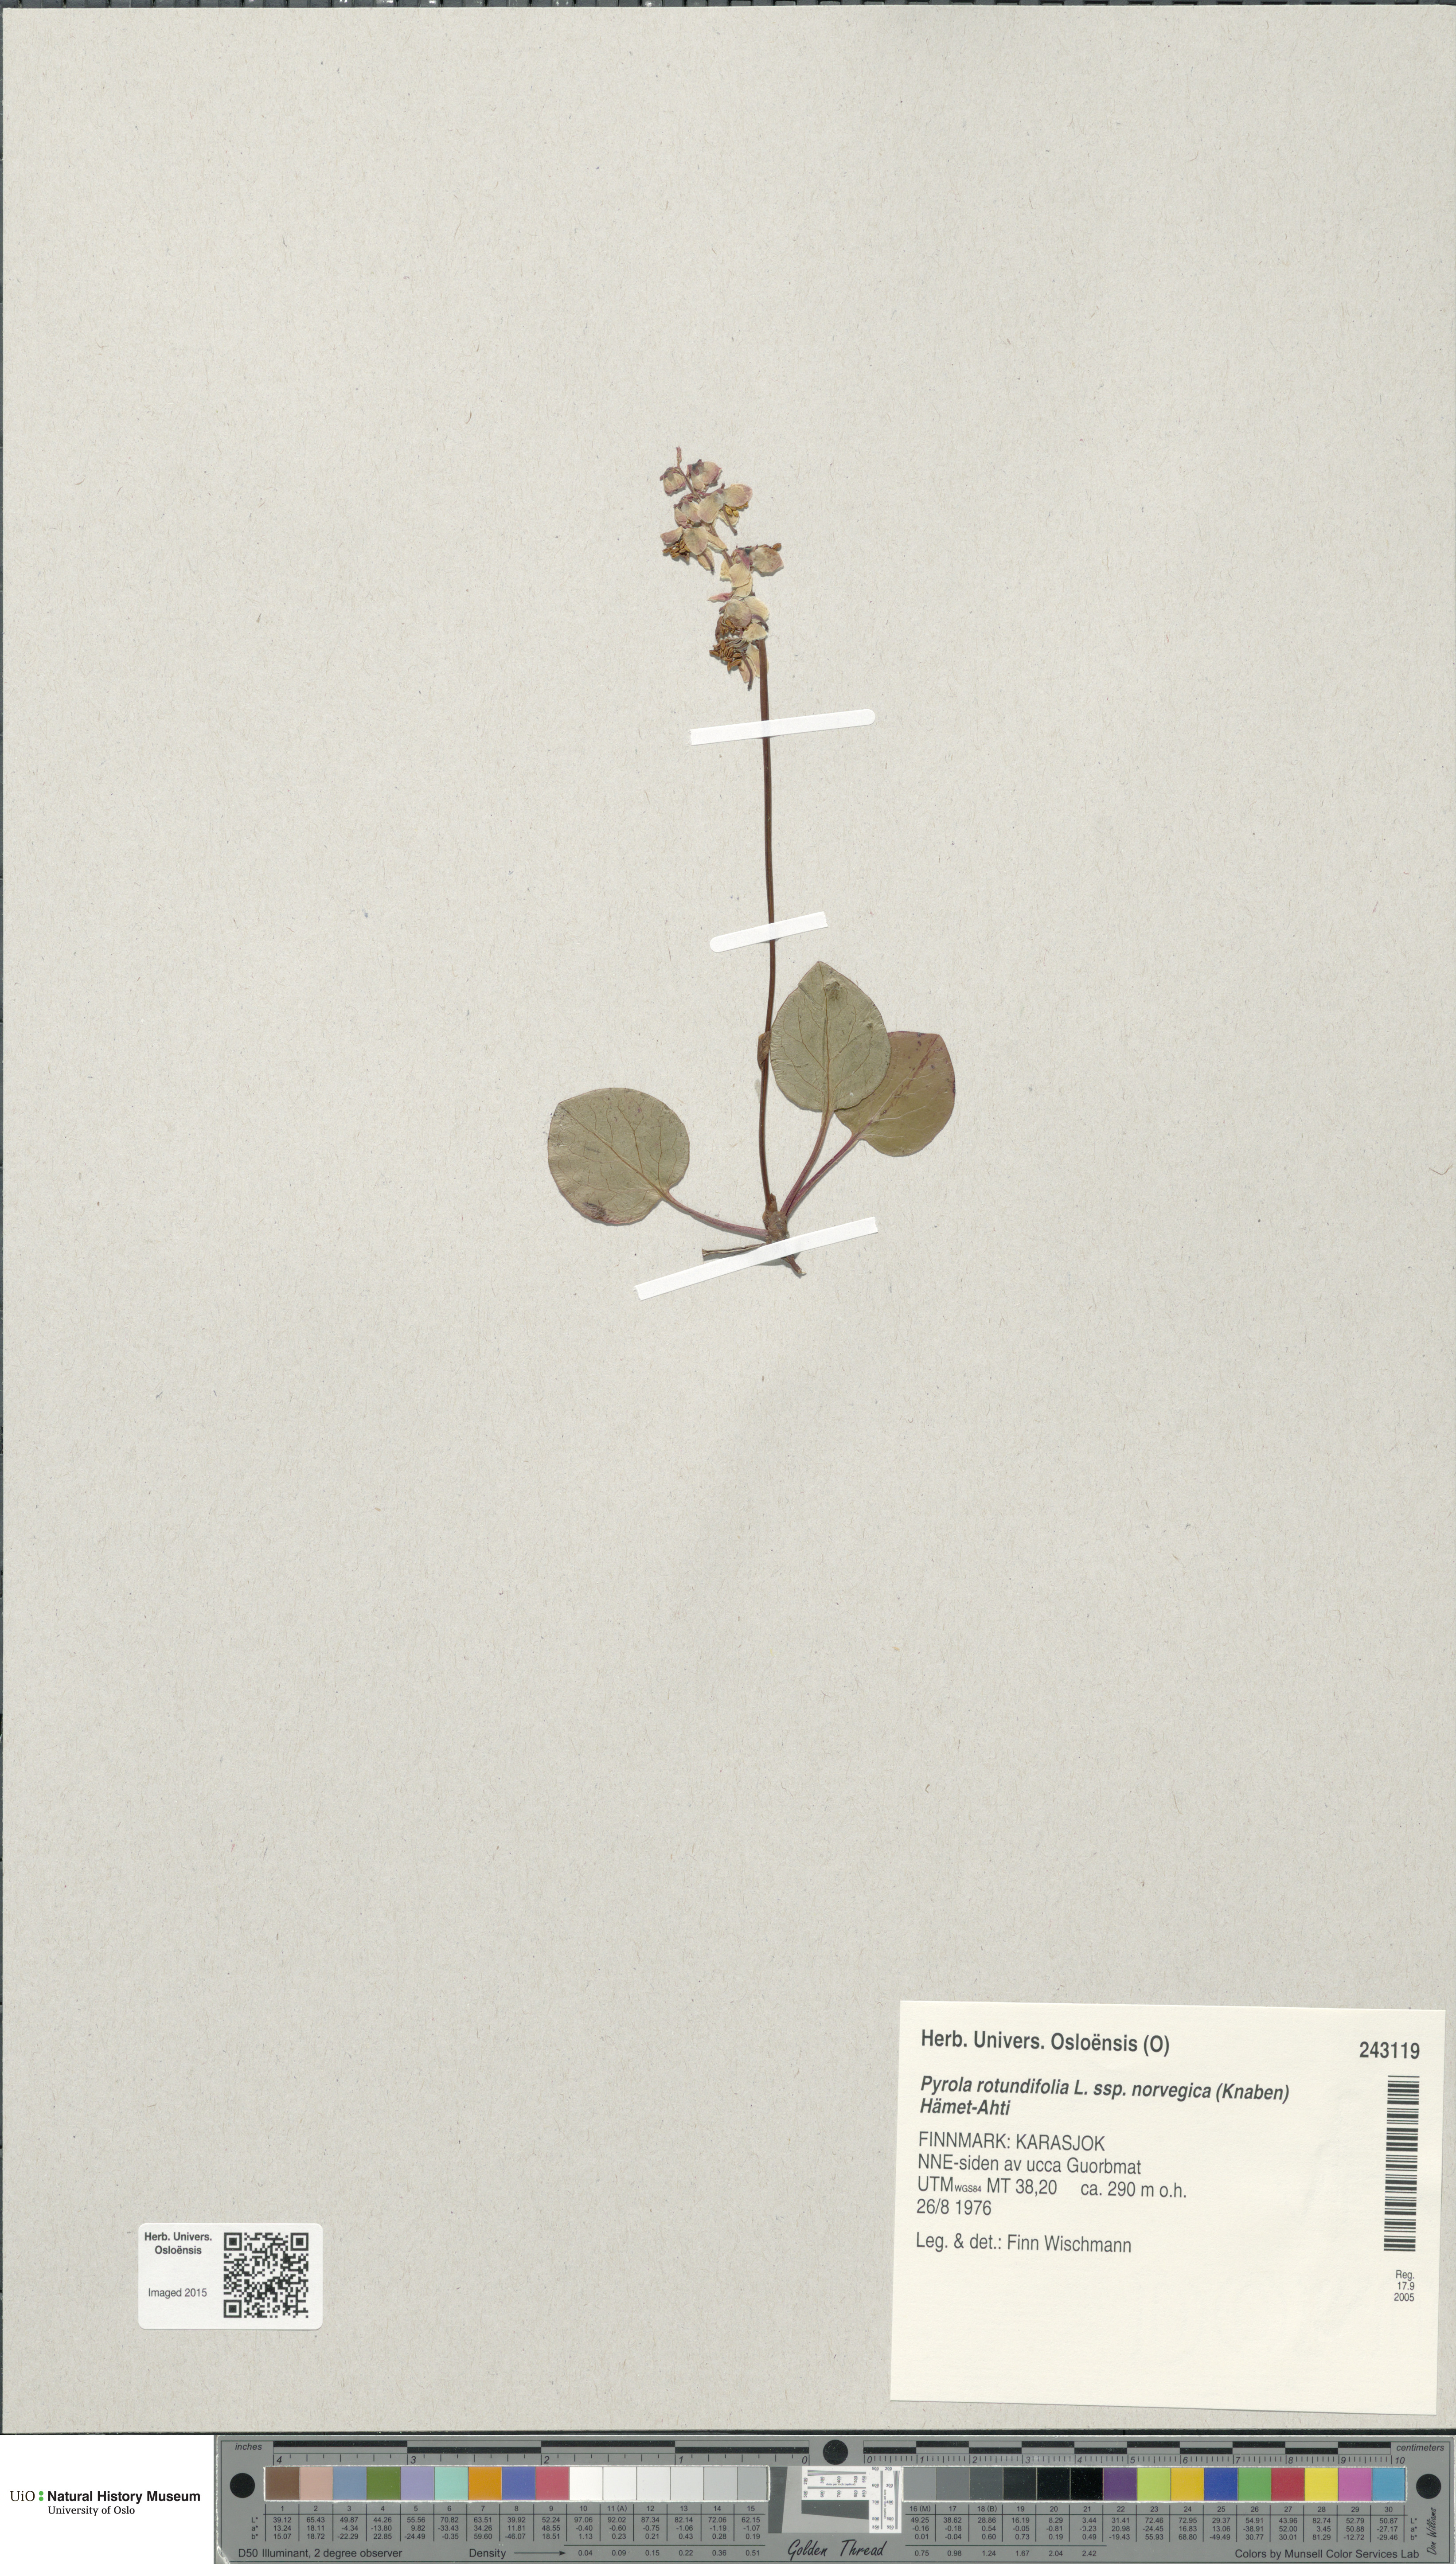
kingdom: Plantae
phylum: Tracheophyta
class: Magnoliopsida
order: Ericales
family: Ericaceae
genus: Pyrola
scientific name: Pyrola rotundifolia
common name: Round-leaved wintergreen
